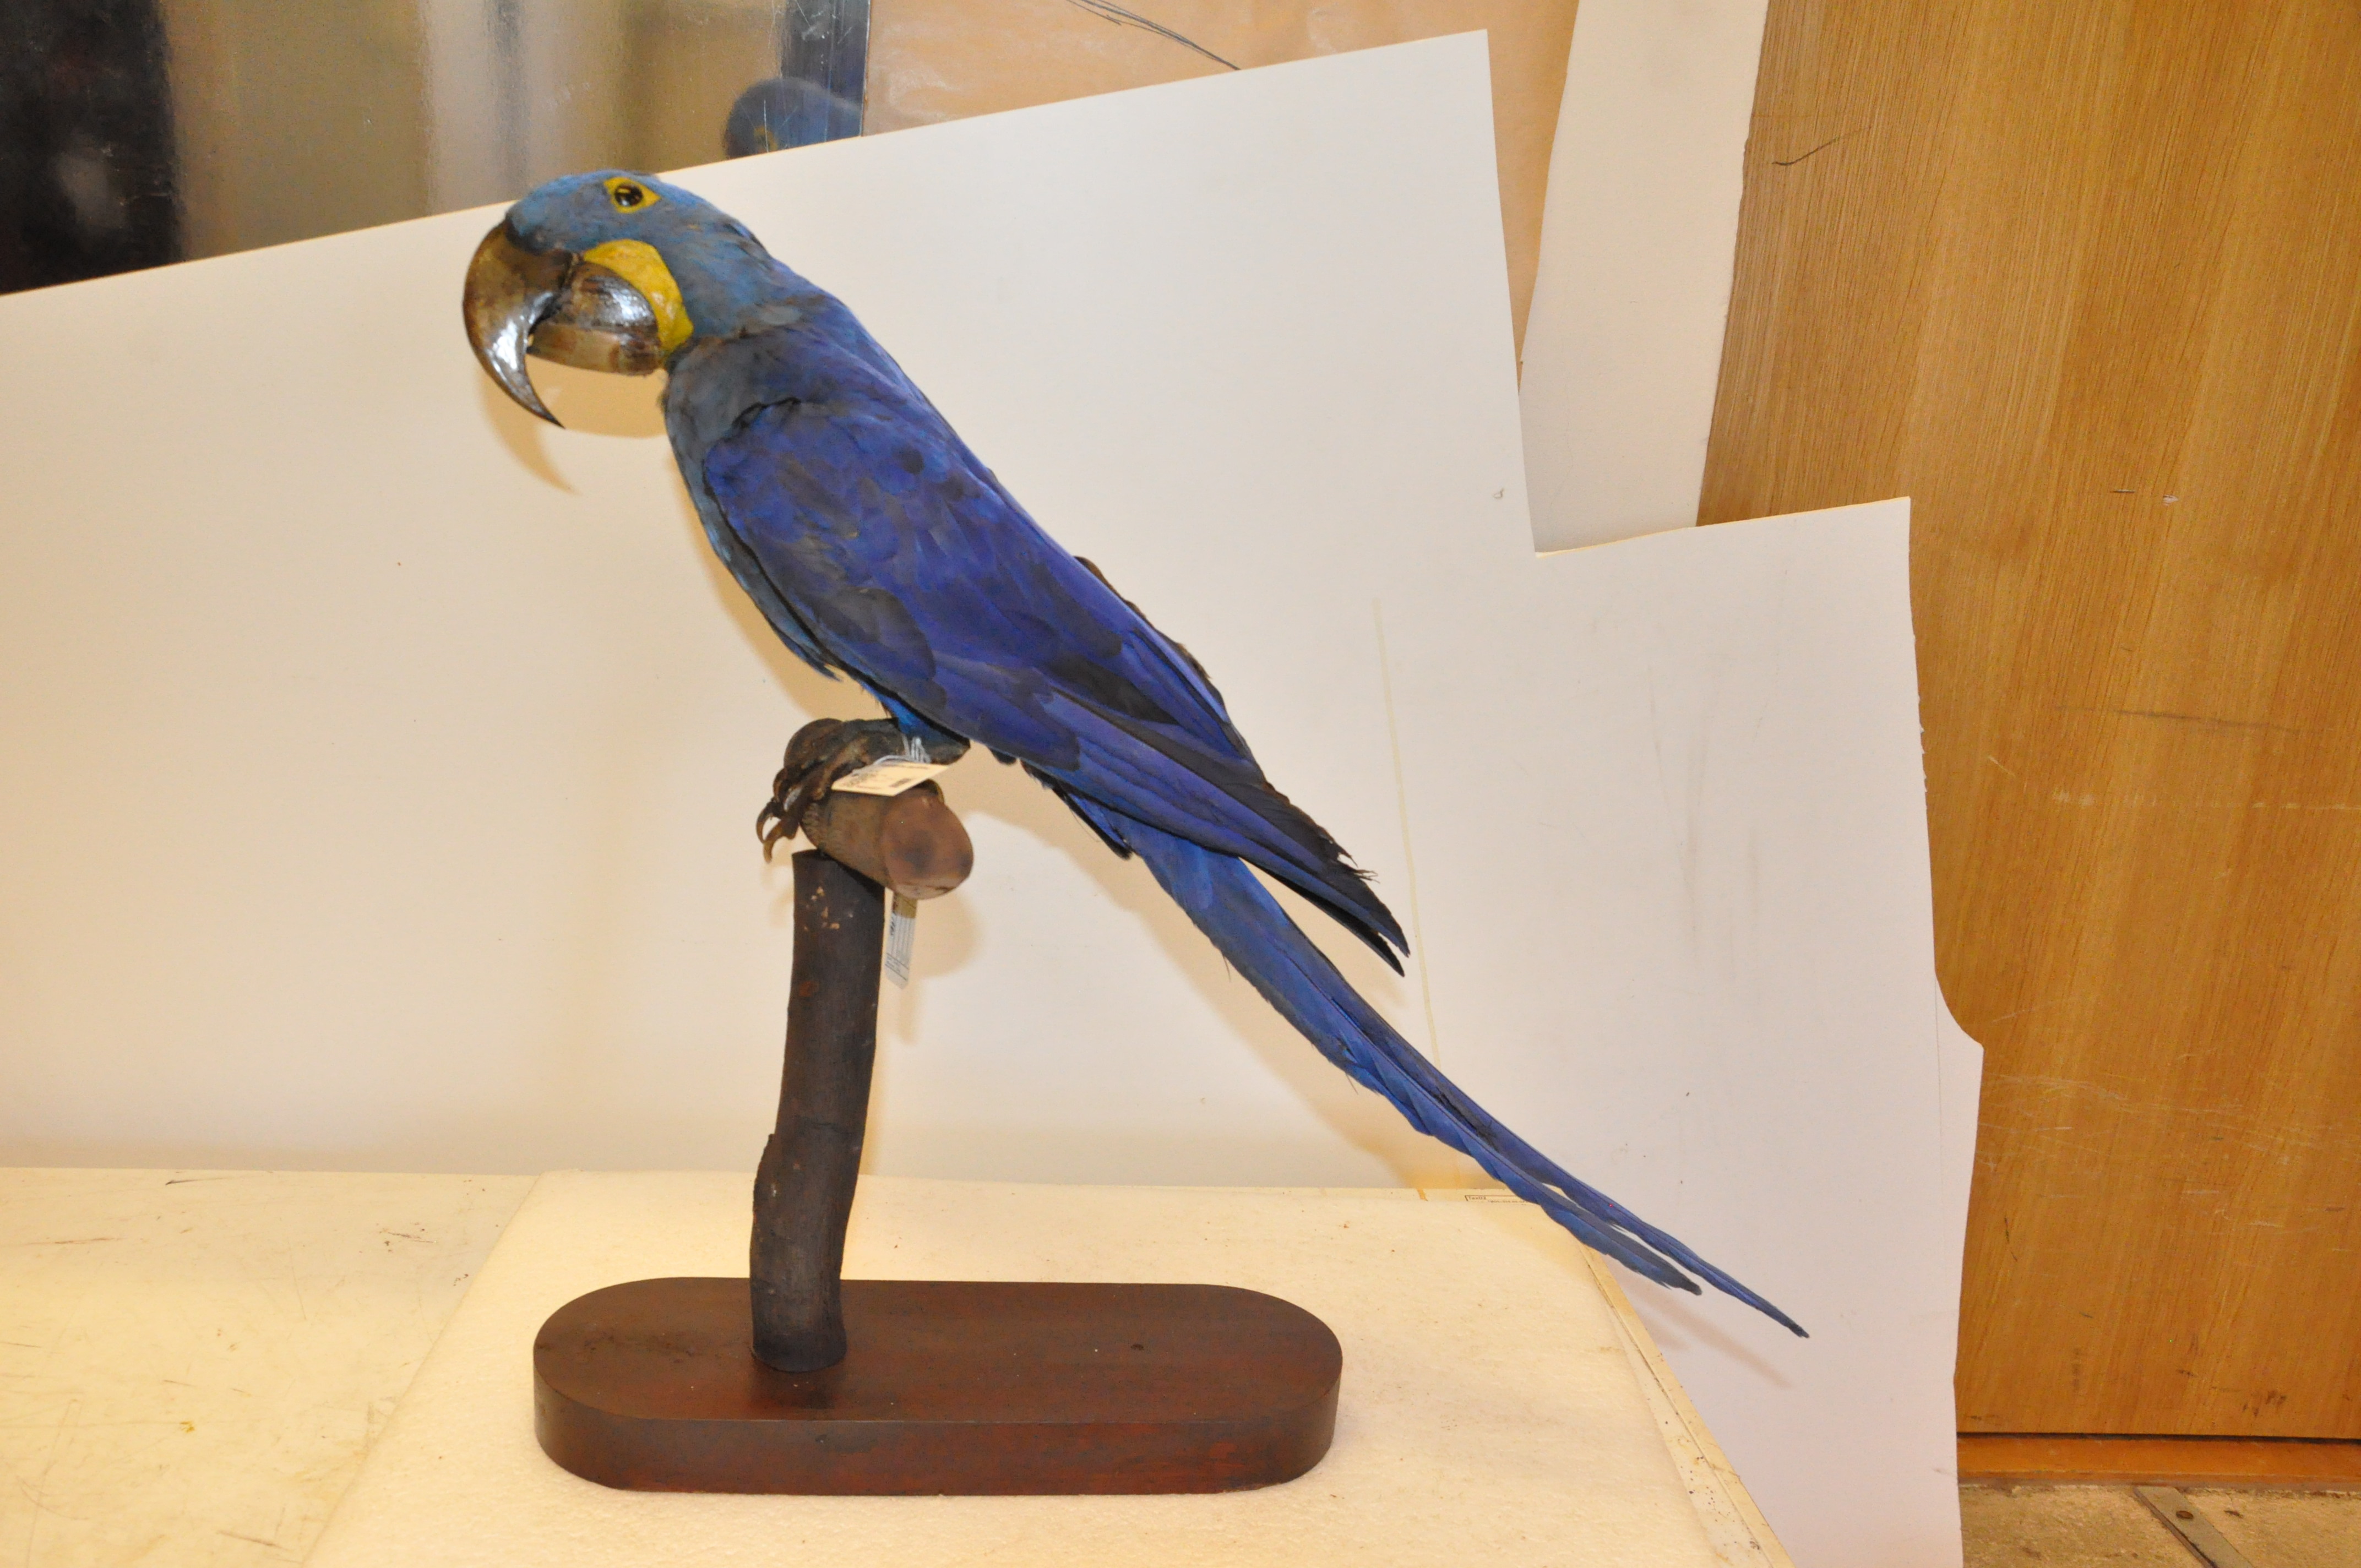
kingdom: Animalia
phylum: Chordata
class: Aves
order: Psittaciformes
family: Psittacidae
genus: Anodorhynchus
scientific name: Anodorhynchus hyacinthinus
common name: Hyacinth macaw
